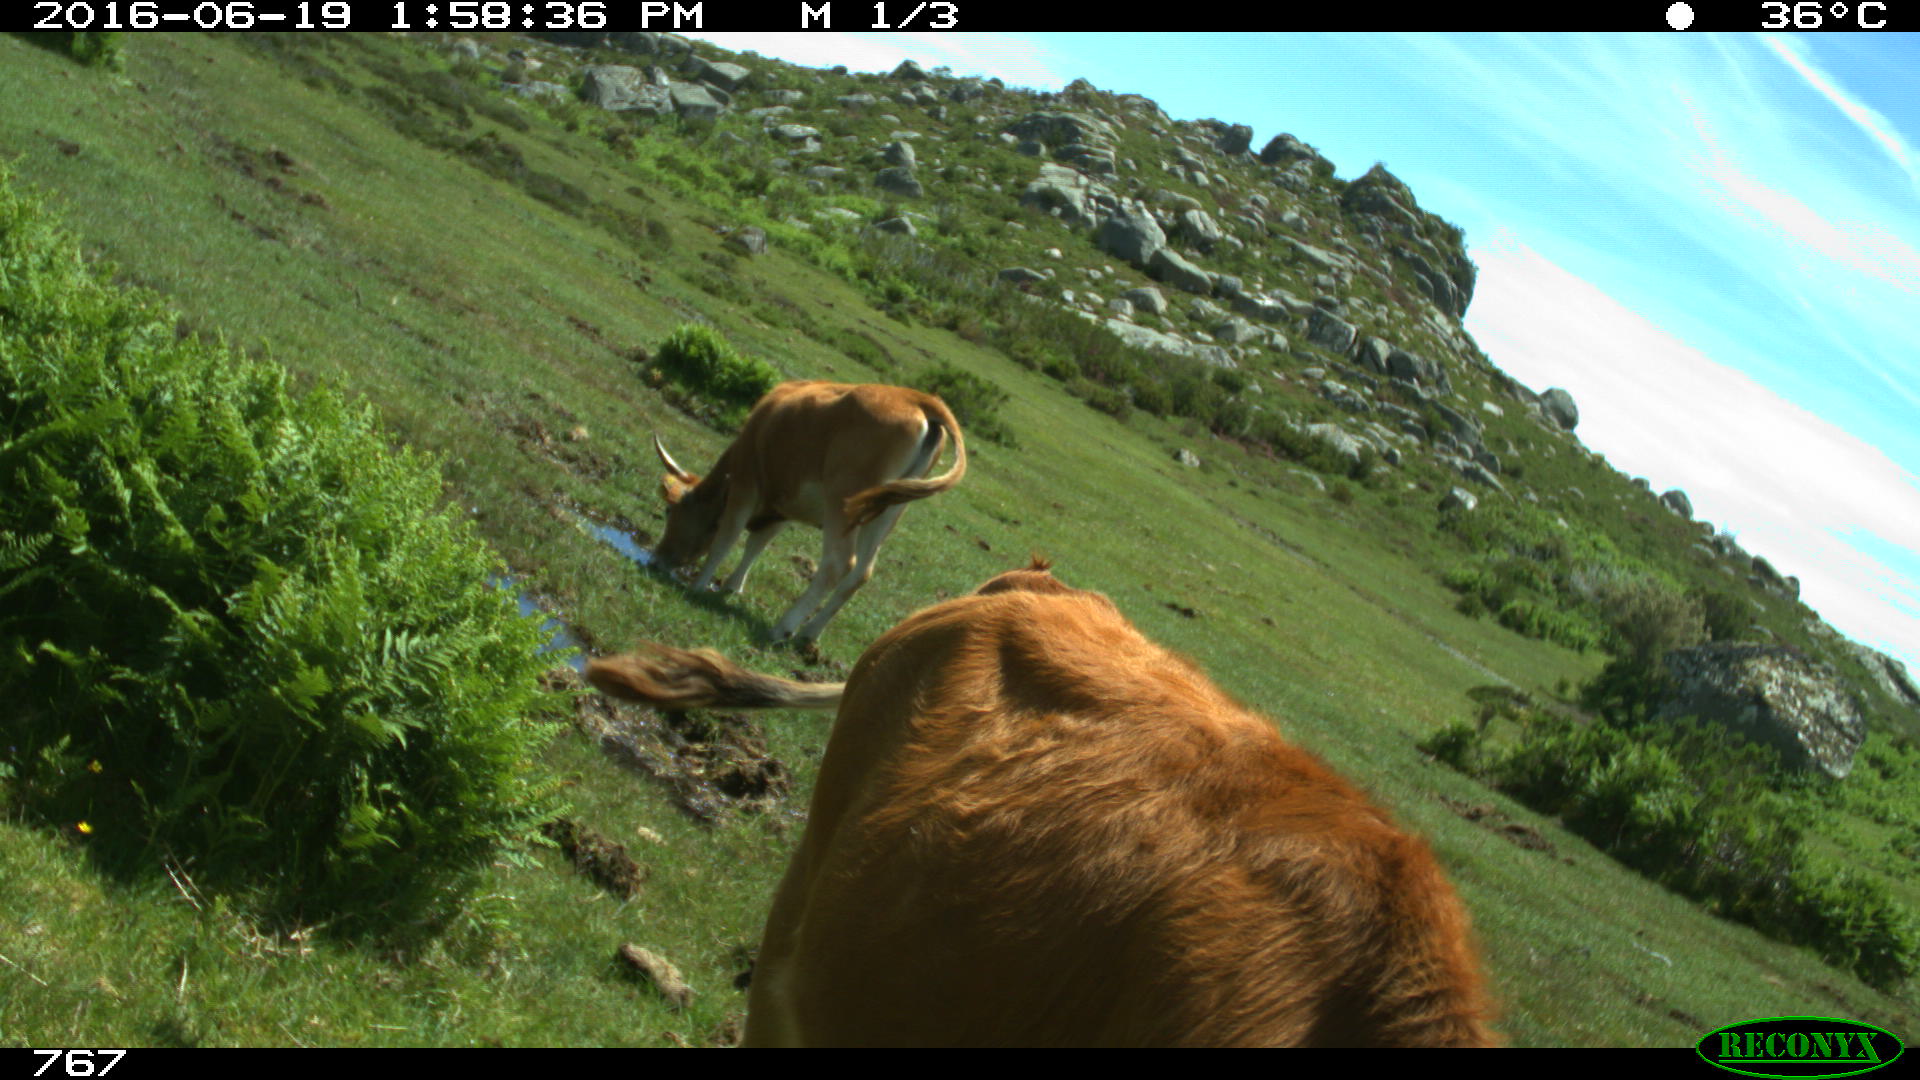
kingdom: Animalia
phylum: Chordata
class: Mammalia
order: Artiodactyla
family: Bovidae
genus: Bos
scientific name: Bos taurus
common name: Domesticated cattle
